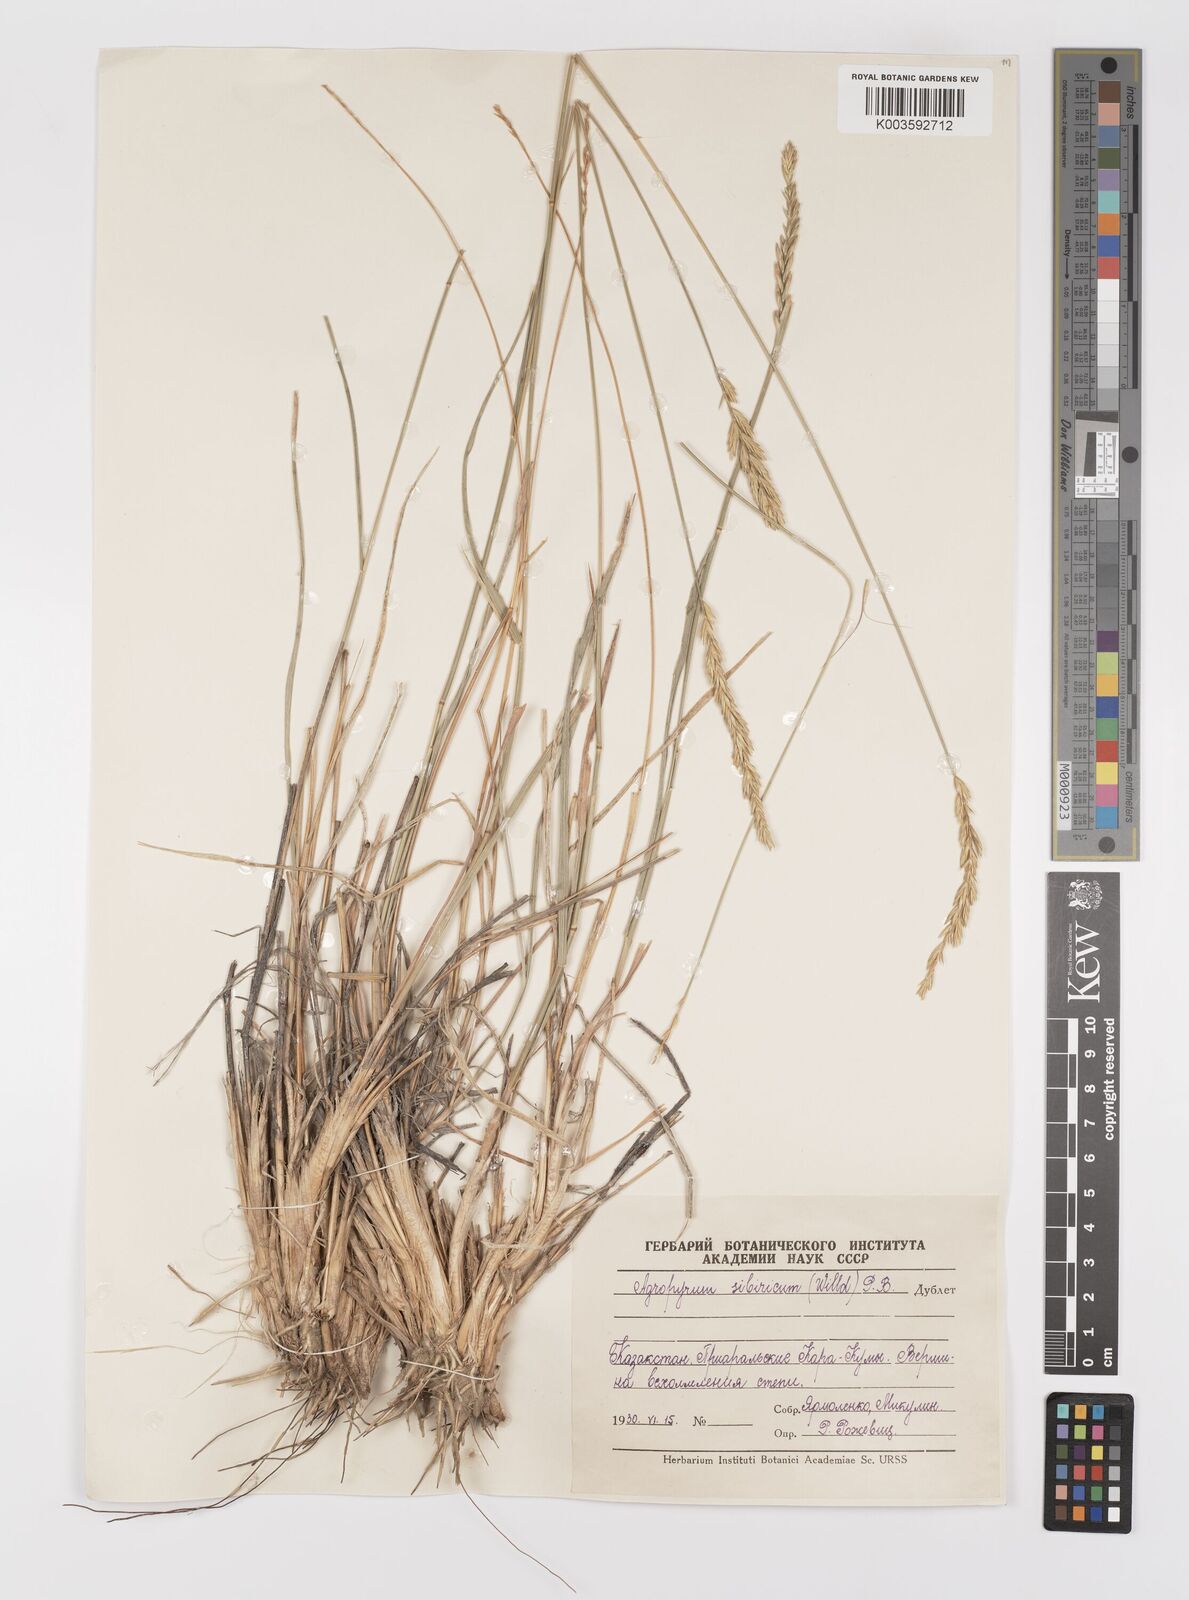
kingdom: Plantae
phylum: Tracheophyta
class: Liliopsida
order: Poales
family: Poaceae
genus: Agropyron
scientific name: Agropyron fragile
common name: Siberian wheatgrass
